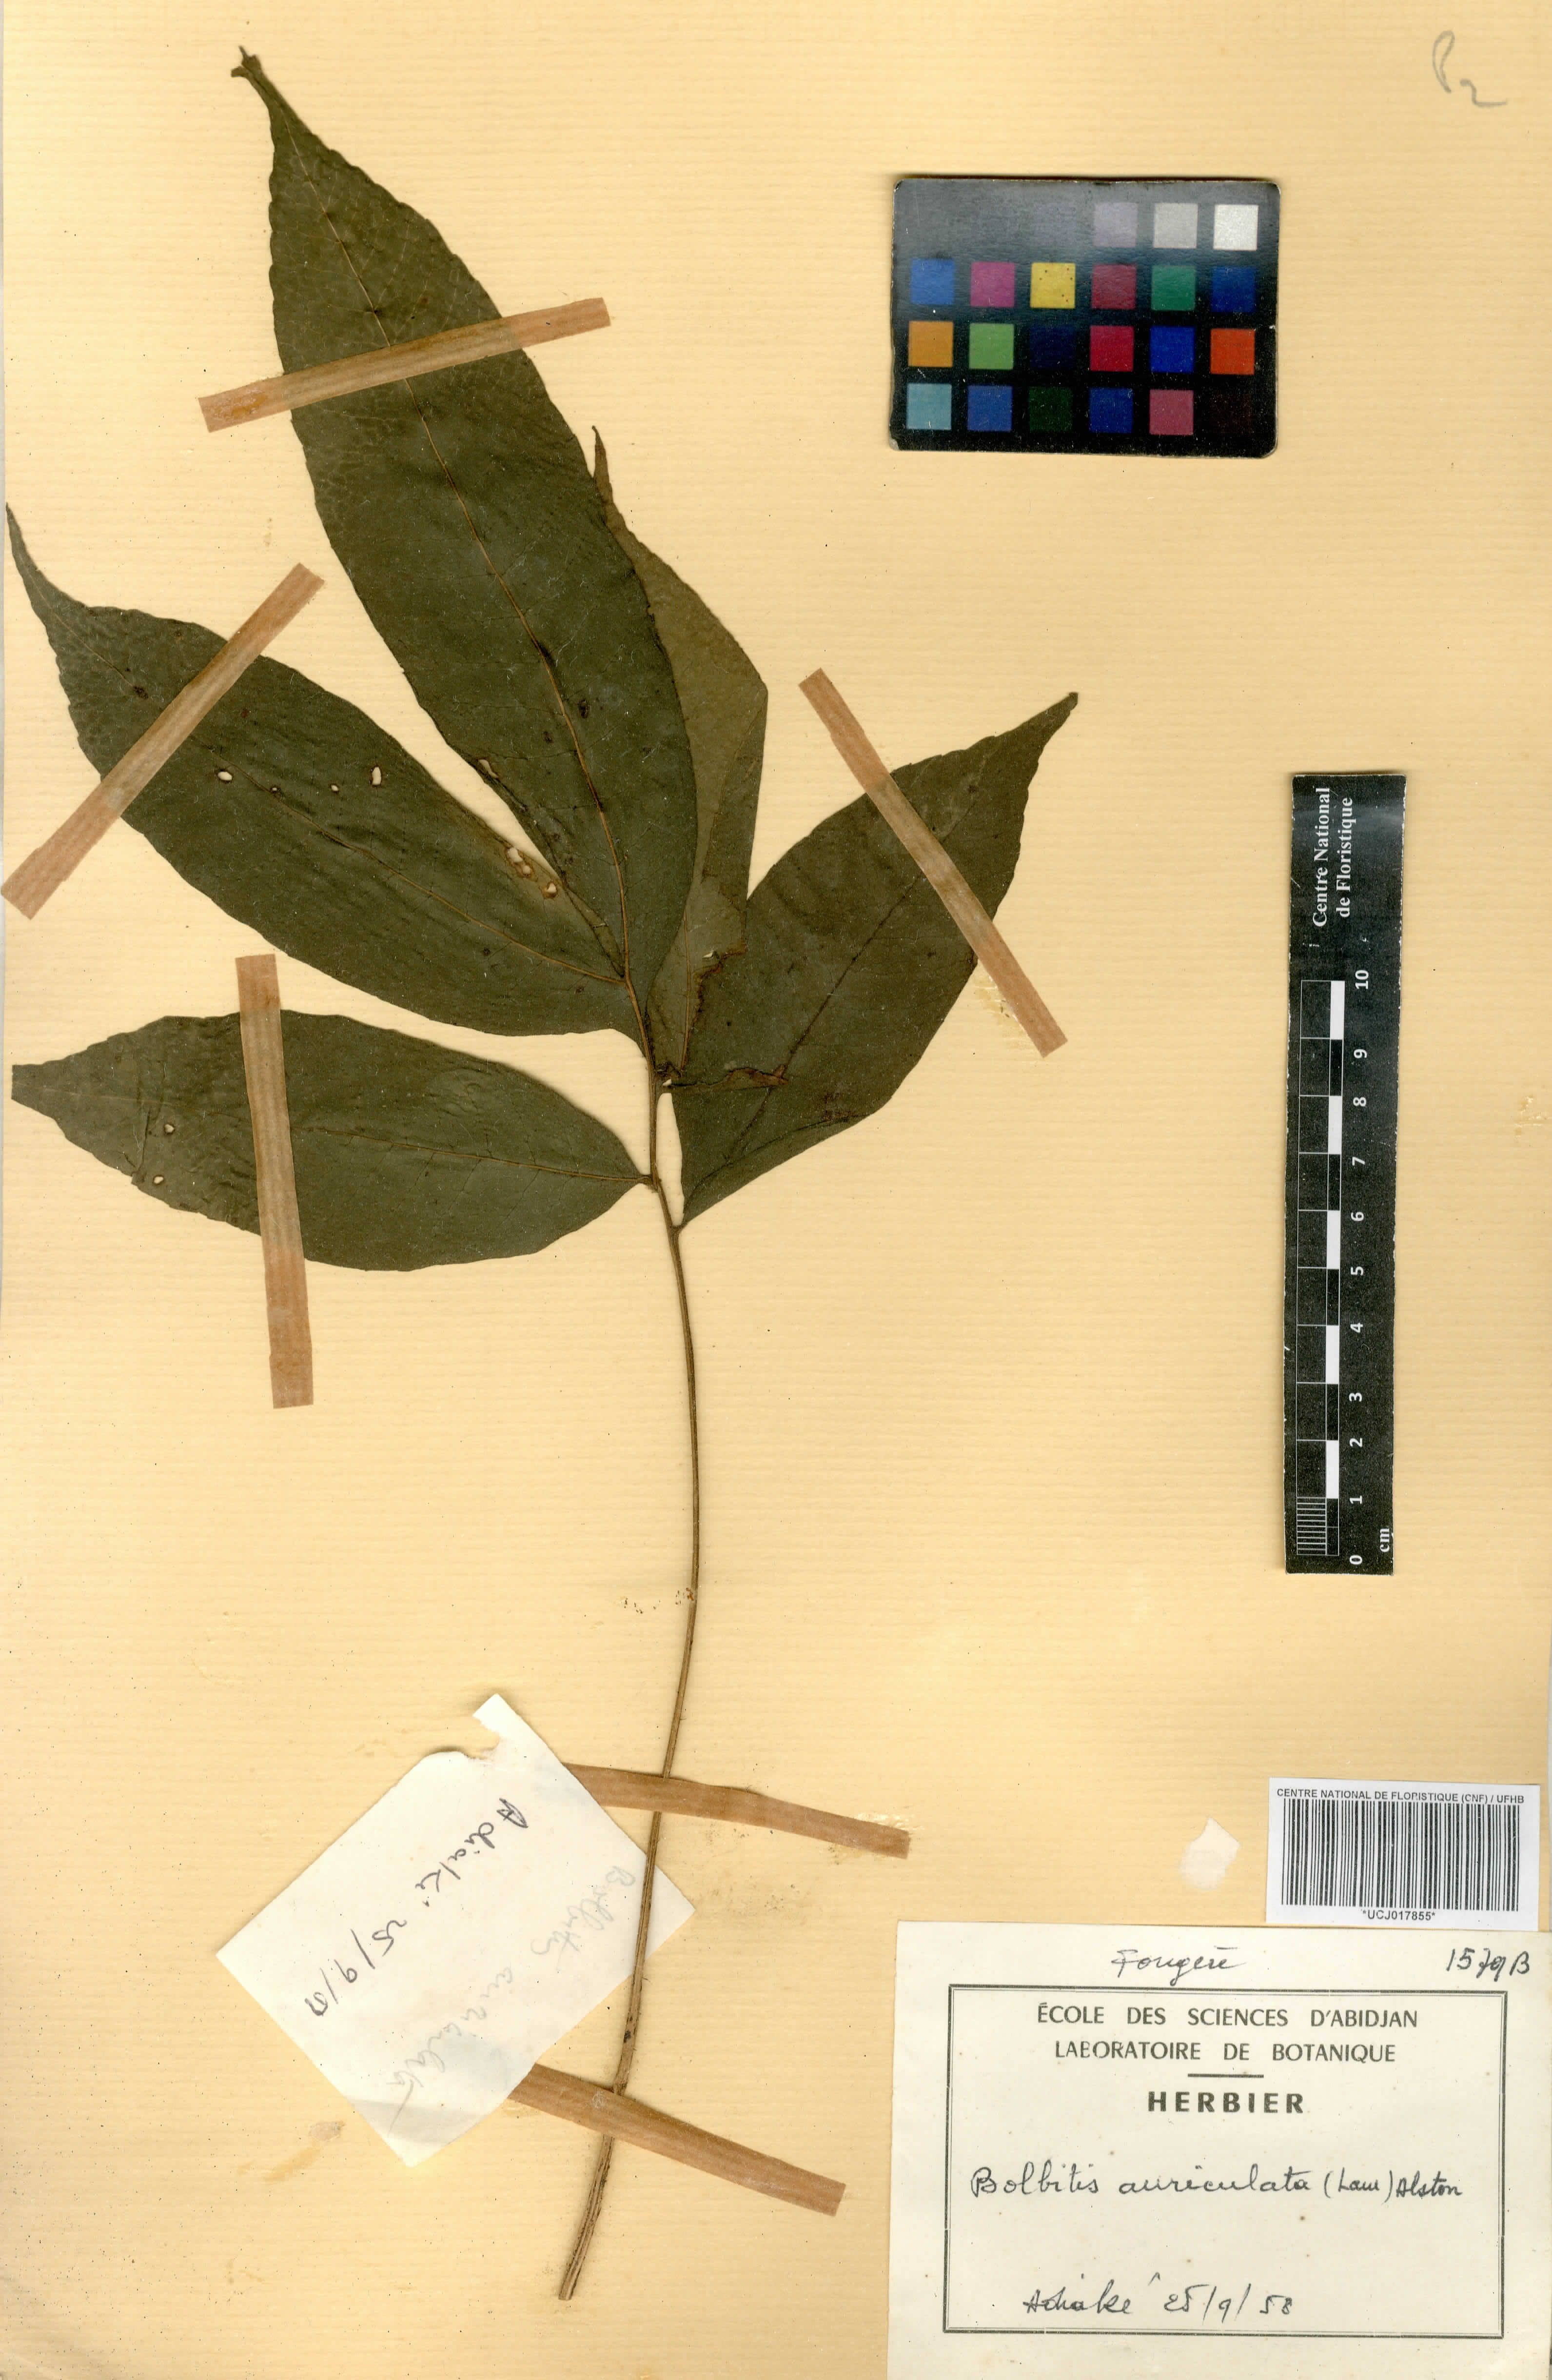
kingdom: Plantae
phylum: Tracheophyta
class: Polypodiopsida
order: Polypodiales
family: Dryopteridaceae
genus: Bolbitis
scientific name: Bolbitis auriculata
